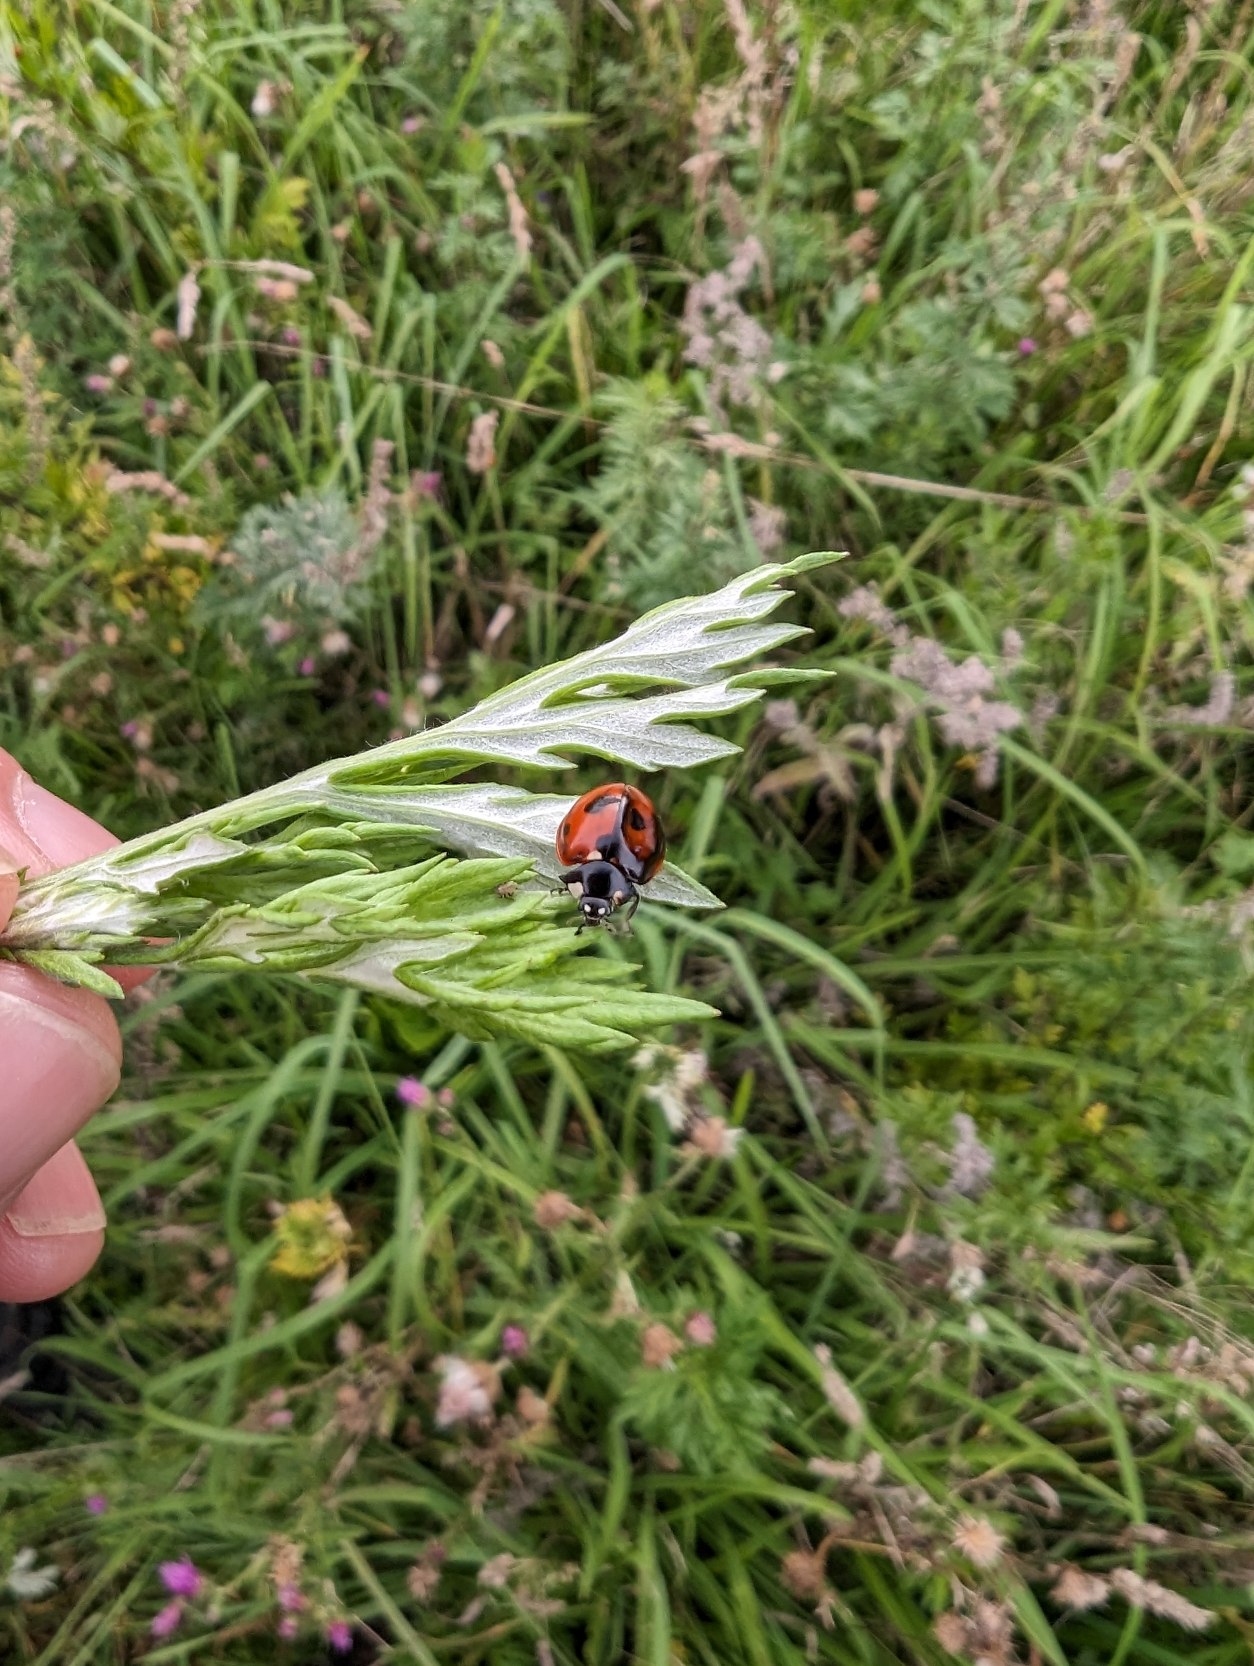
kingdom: Animalia
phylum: Arthropoda
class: Insecta
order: Coleoptera
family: Coccinellidae
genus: Coccinella
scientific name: Coccinella septempunctata
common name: Syvplettet mariehøne
